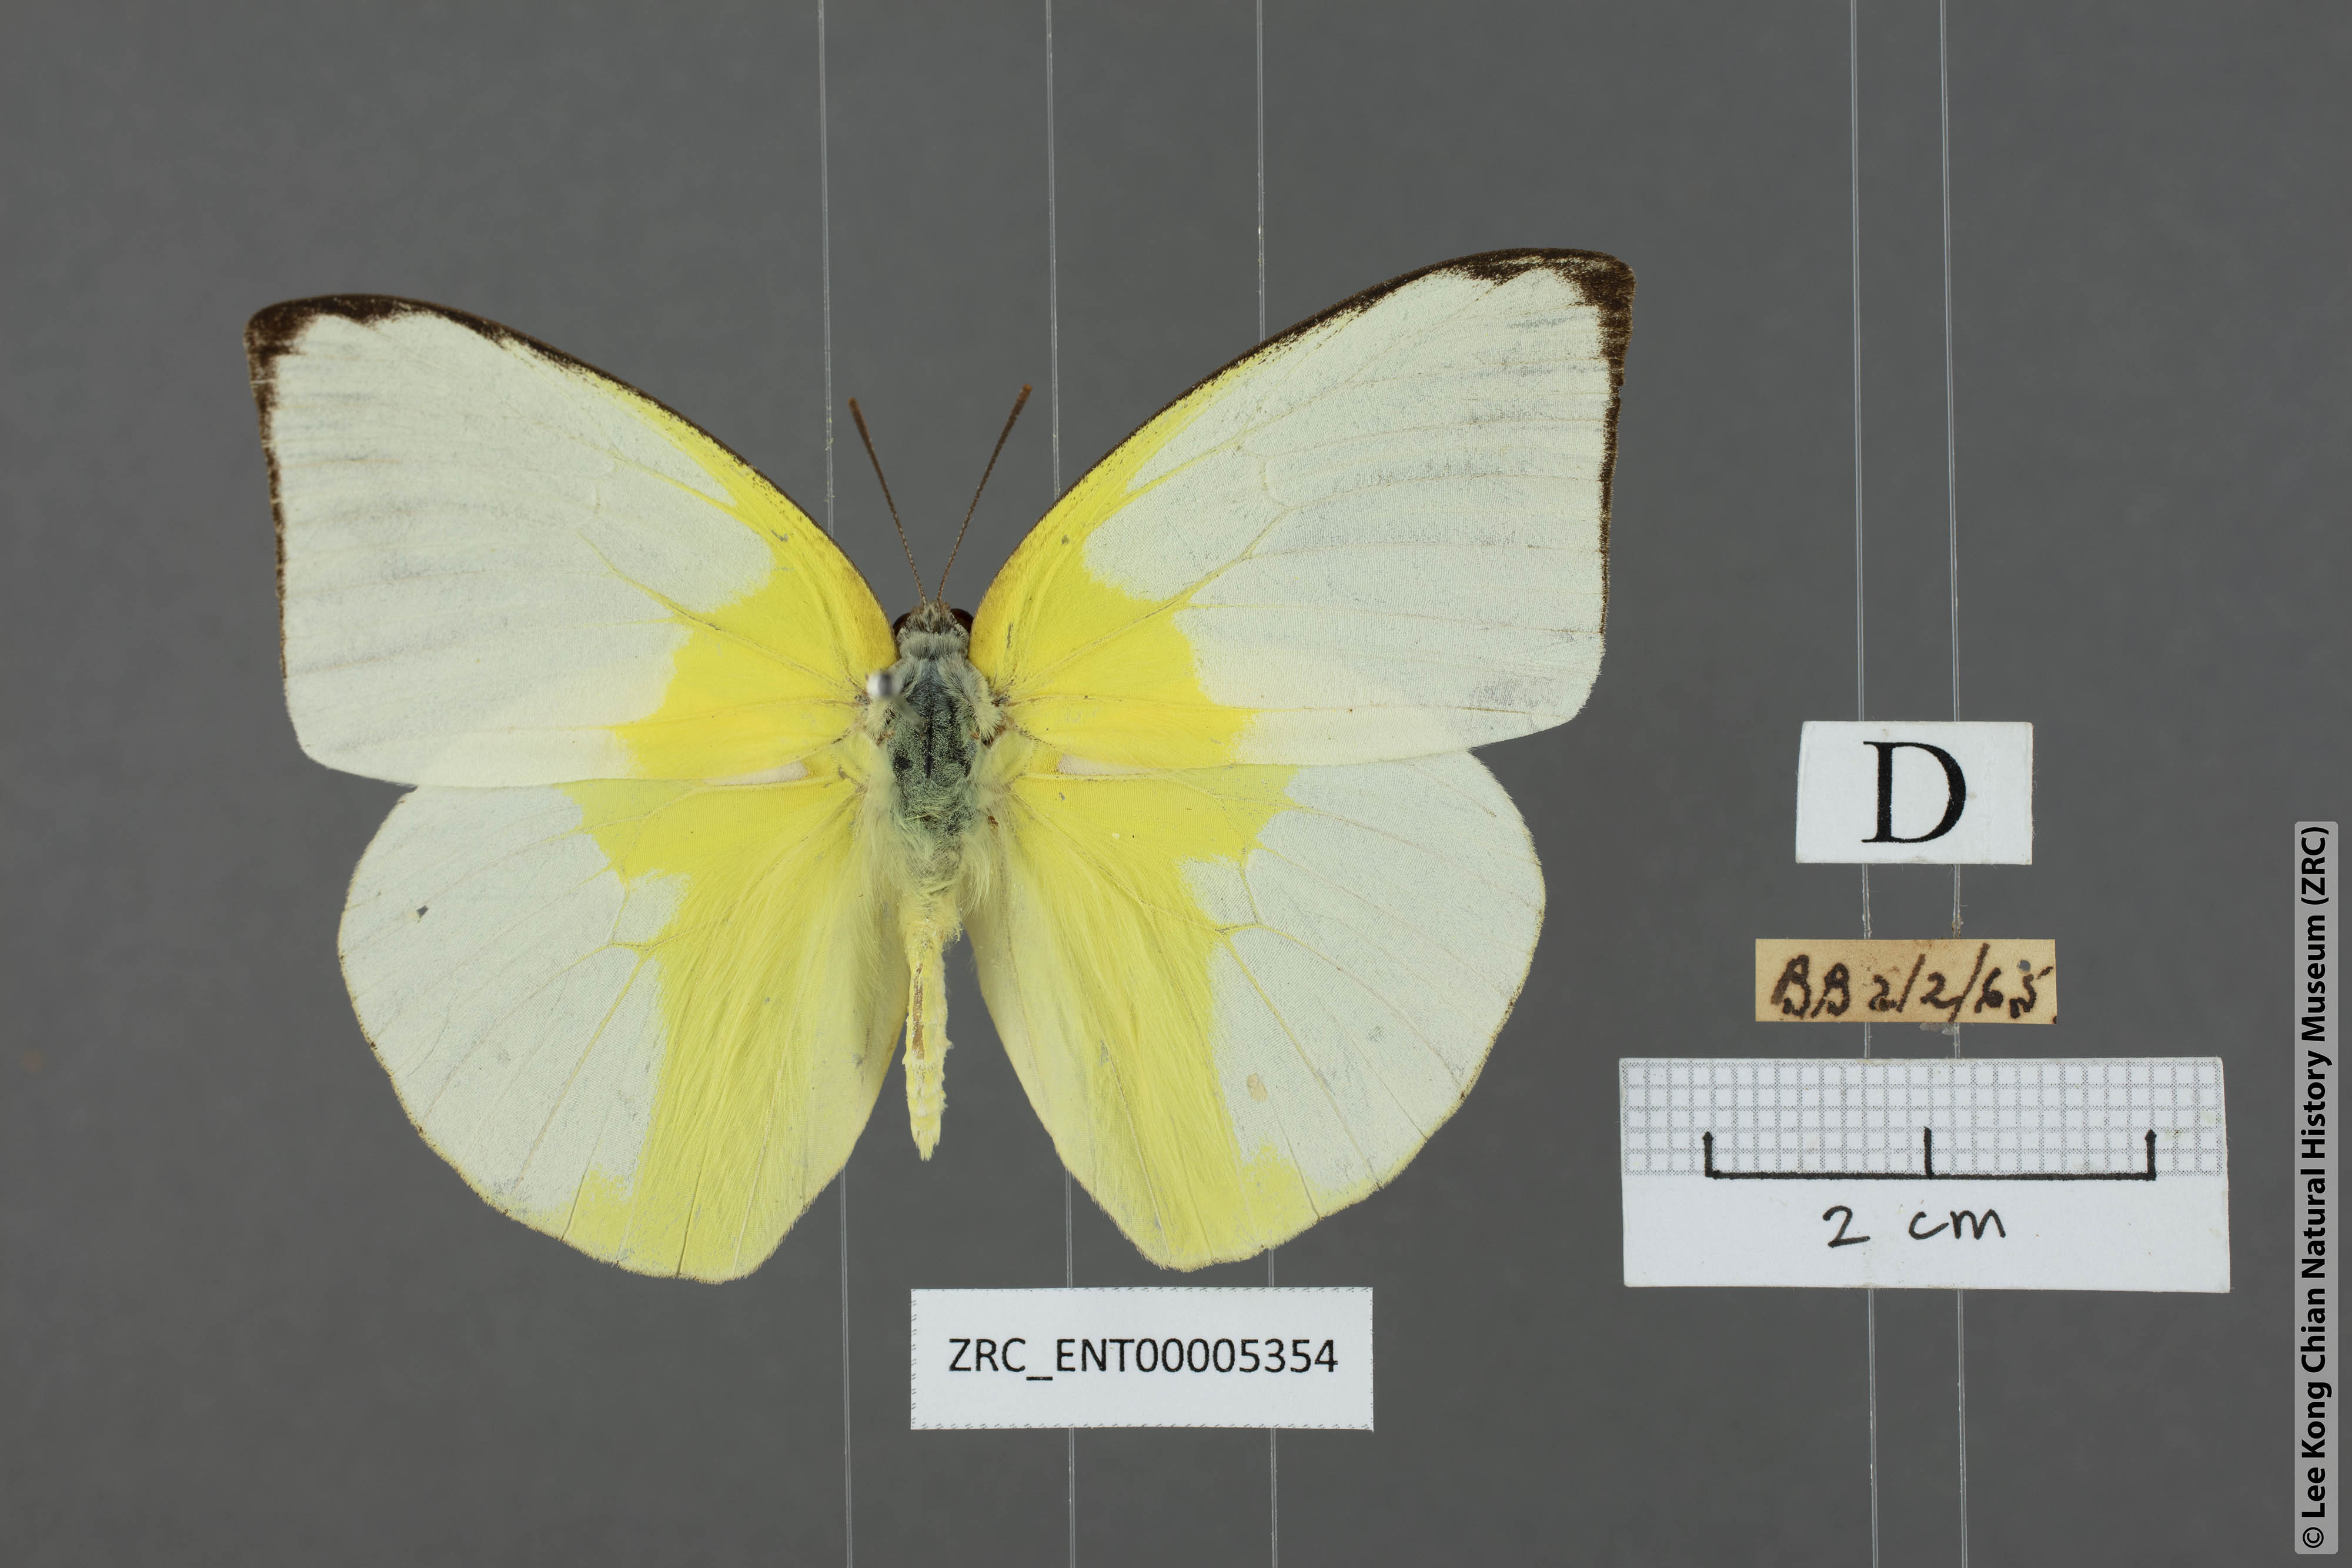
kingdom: Animalia
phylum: Arthropoda
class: Insecta
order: Lepidoptera
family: Pieridae
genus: Catopsilia
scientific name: Catopsilia pomona
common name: Common emigrant
